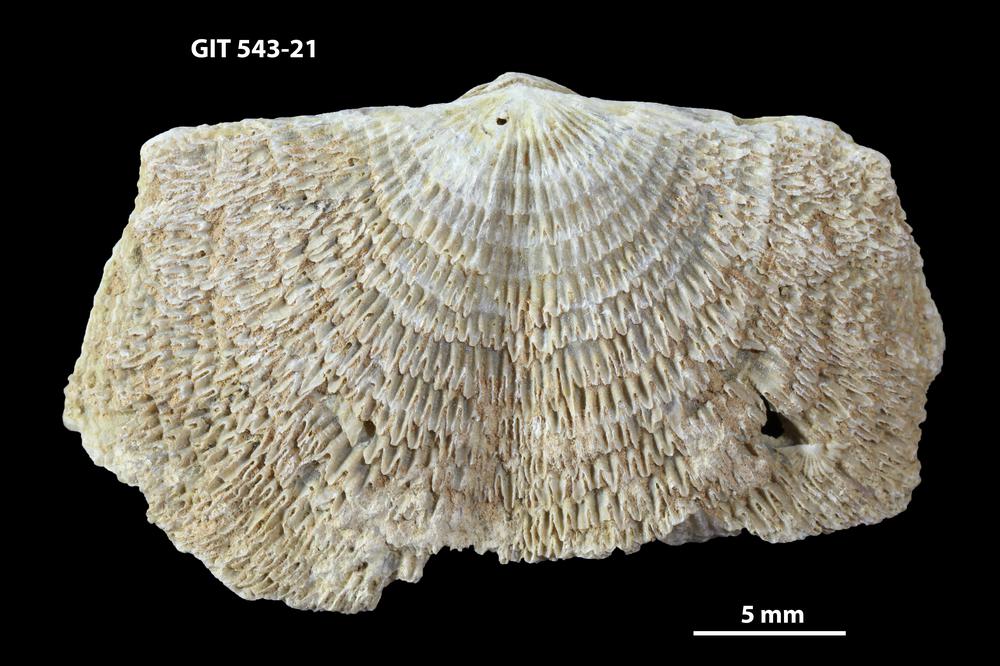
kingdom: Animalia
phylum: Brachiopoda
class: Rhynchonellata
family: Clitambonitidae
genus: Clitambonites
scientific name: Clitambonites
